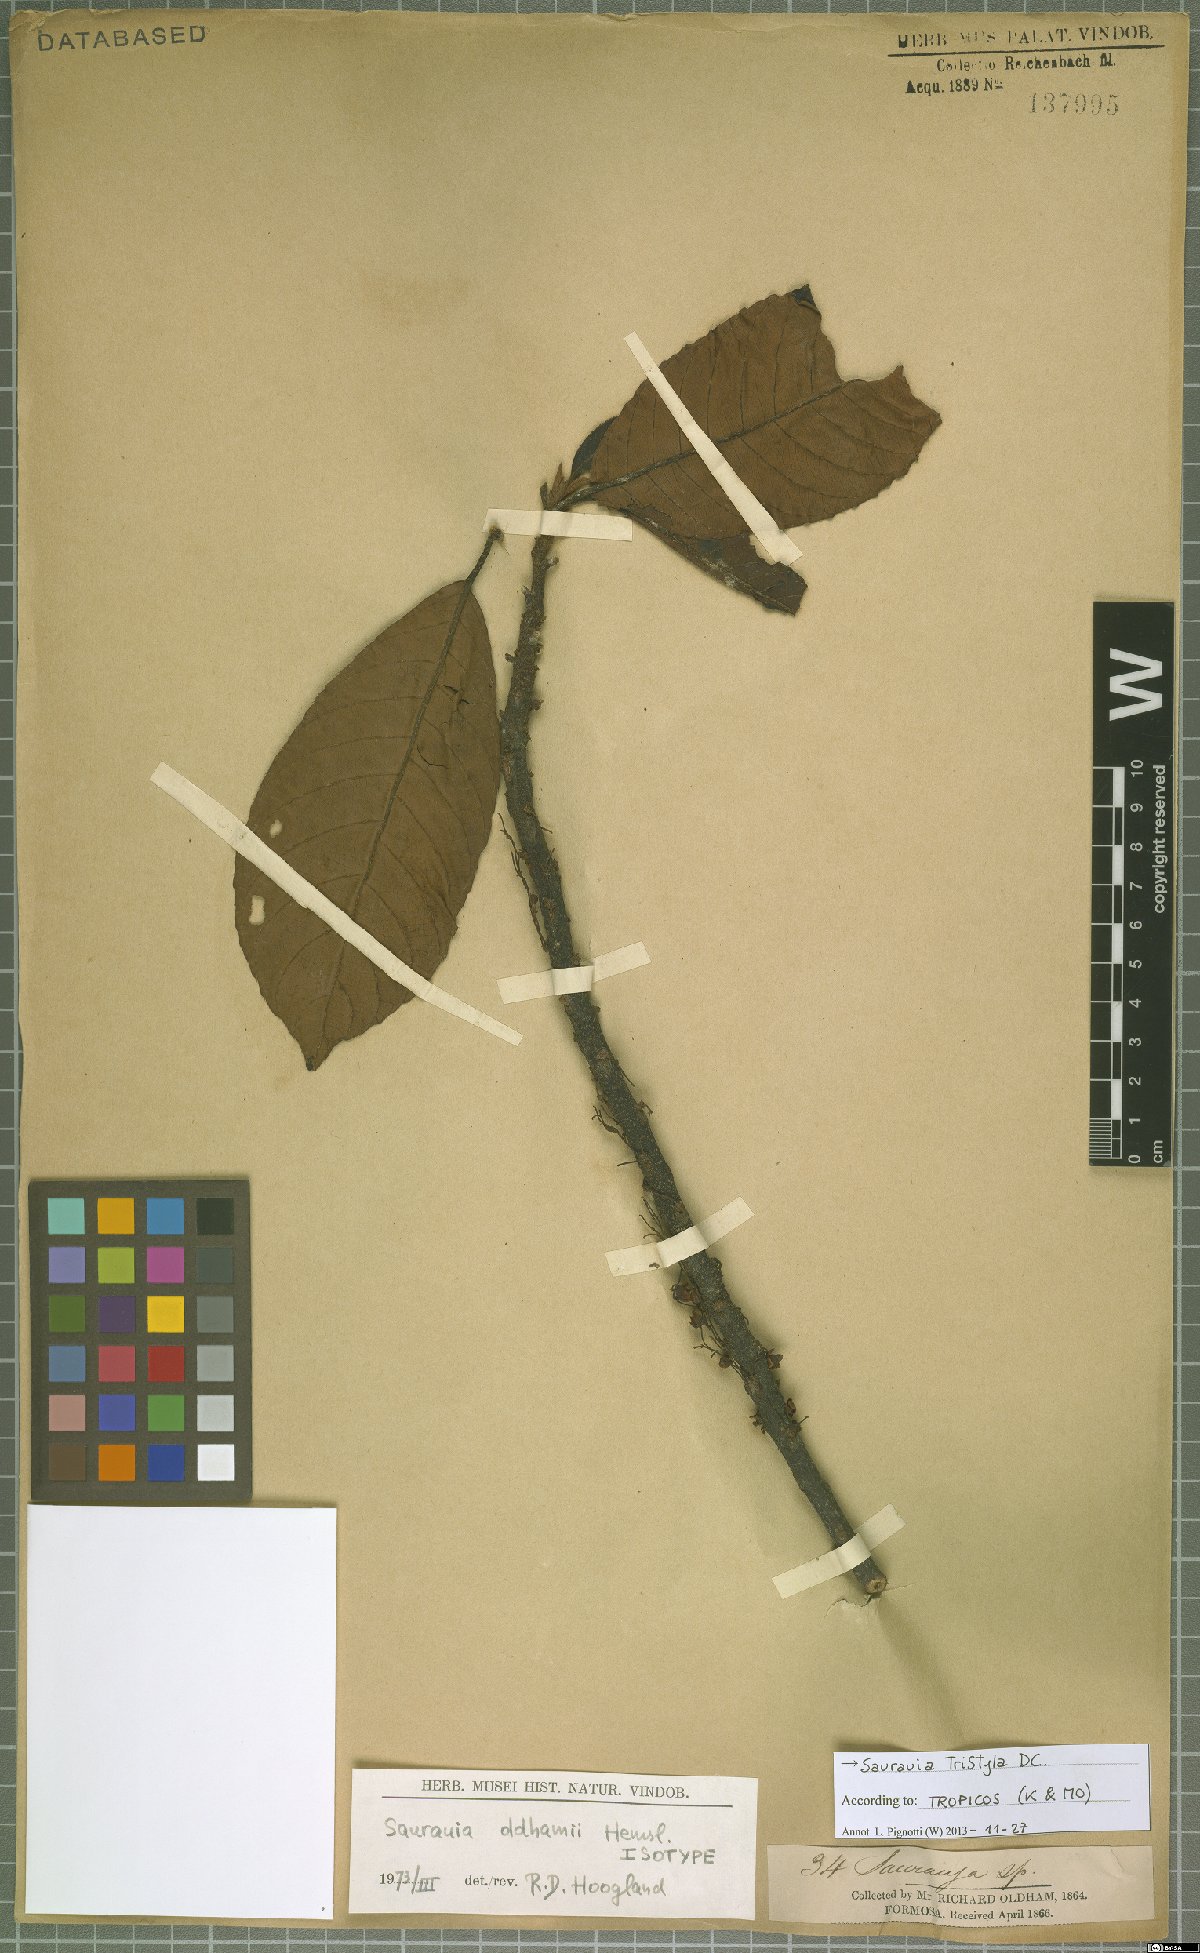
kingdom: Plantae
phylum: Tracheophyta
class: Magnoliopsida
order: Ericales
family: Actinidiaceae
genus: Saurauia
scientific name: Saurauia tristyla
